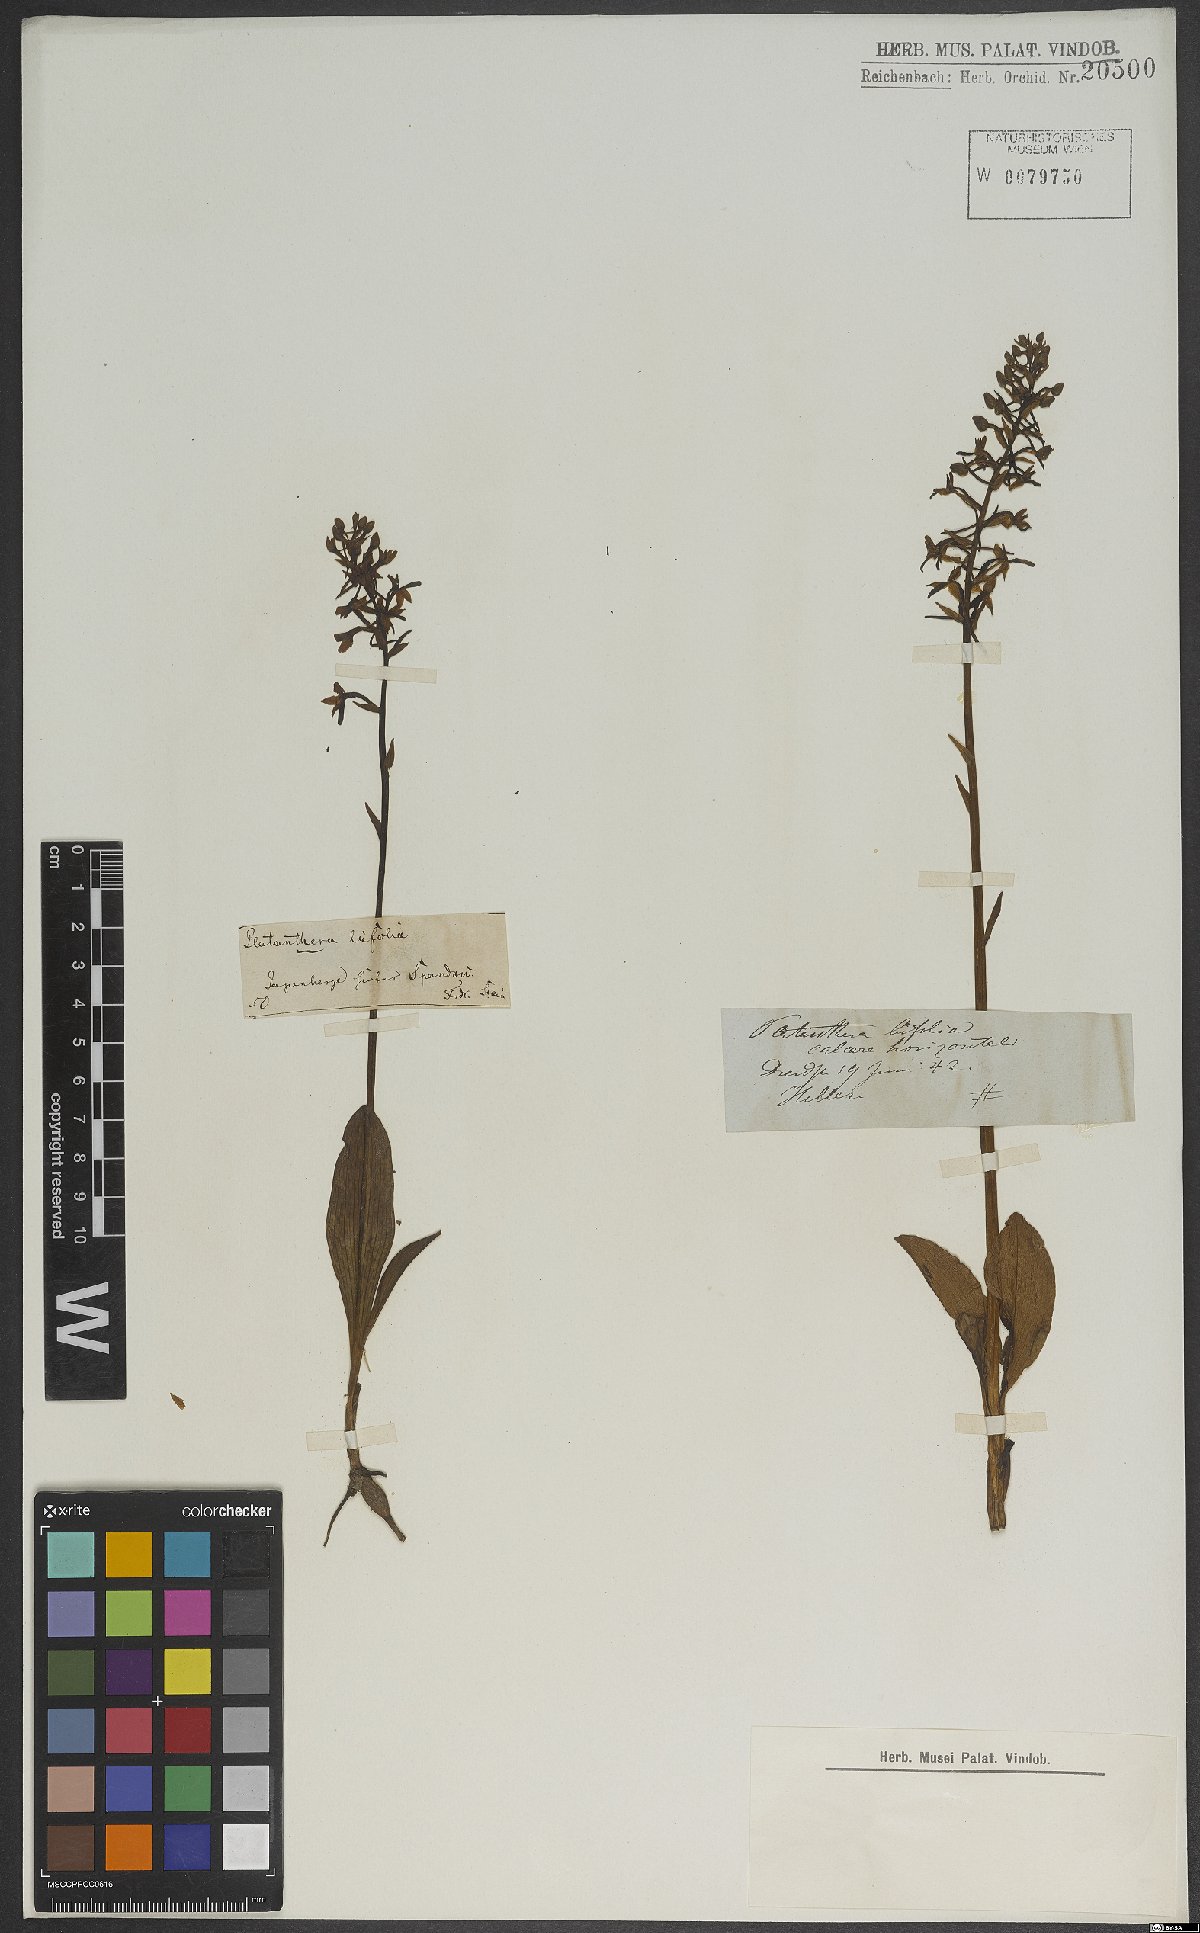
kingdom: Plantae
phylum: Tracheophyta
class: Liliopsida
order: Asparagales
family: Orchidaceae
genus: Platanthera
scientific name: Platanthera bifolia
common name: Lesser butterfly-orchid
